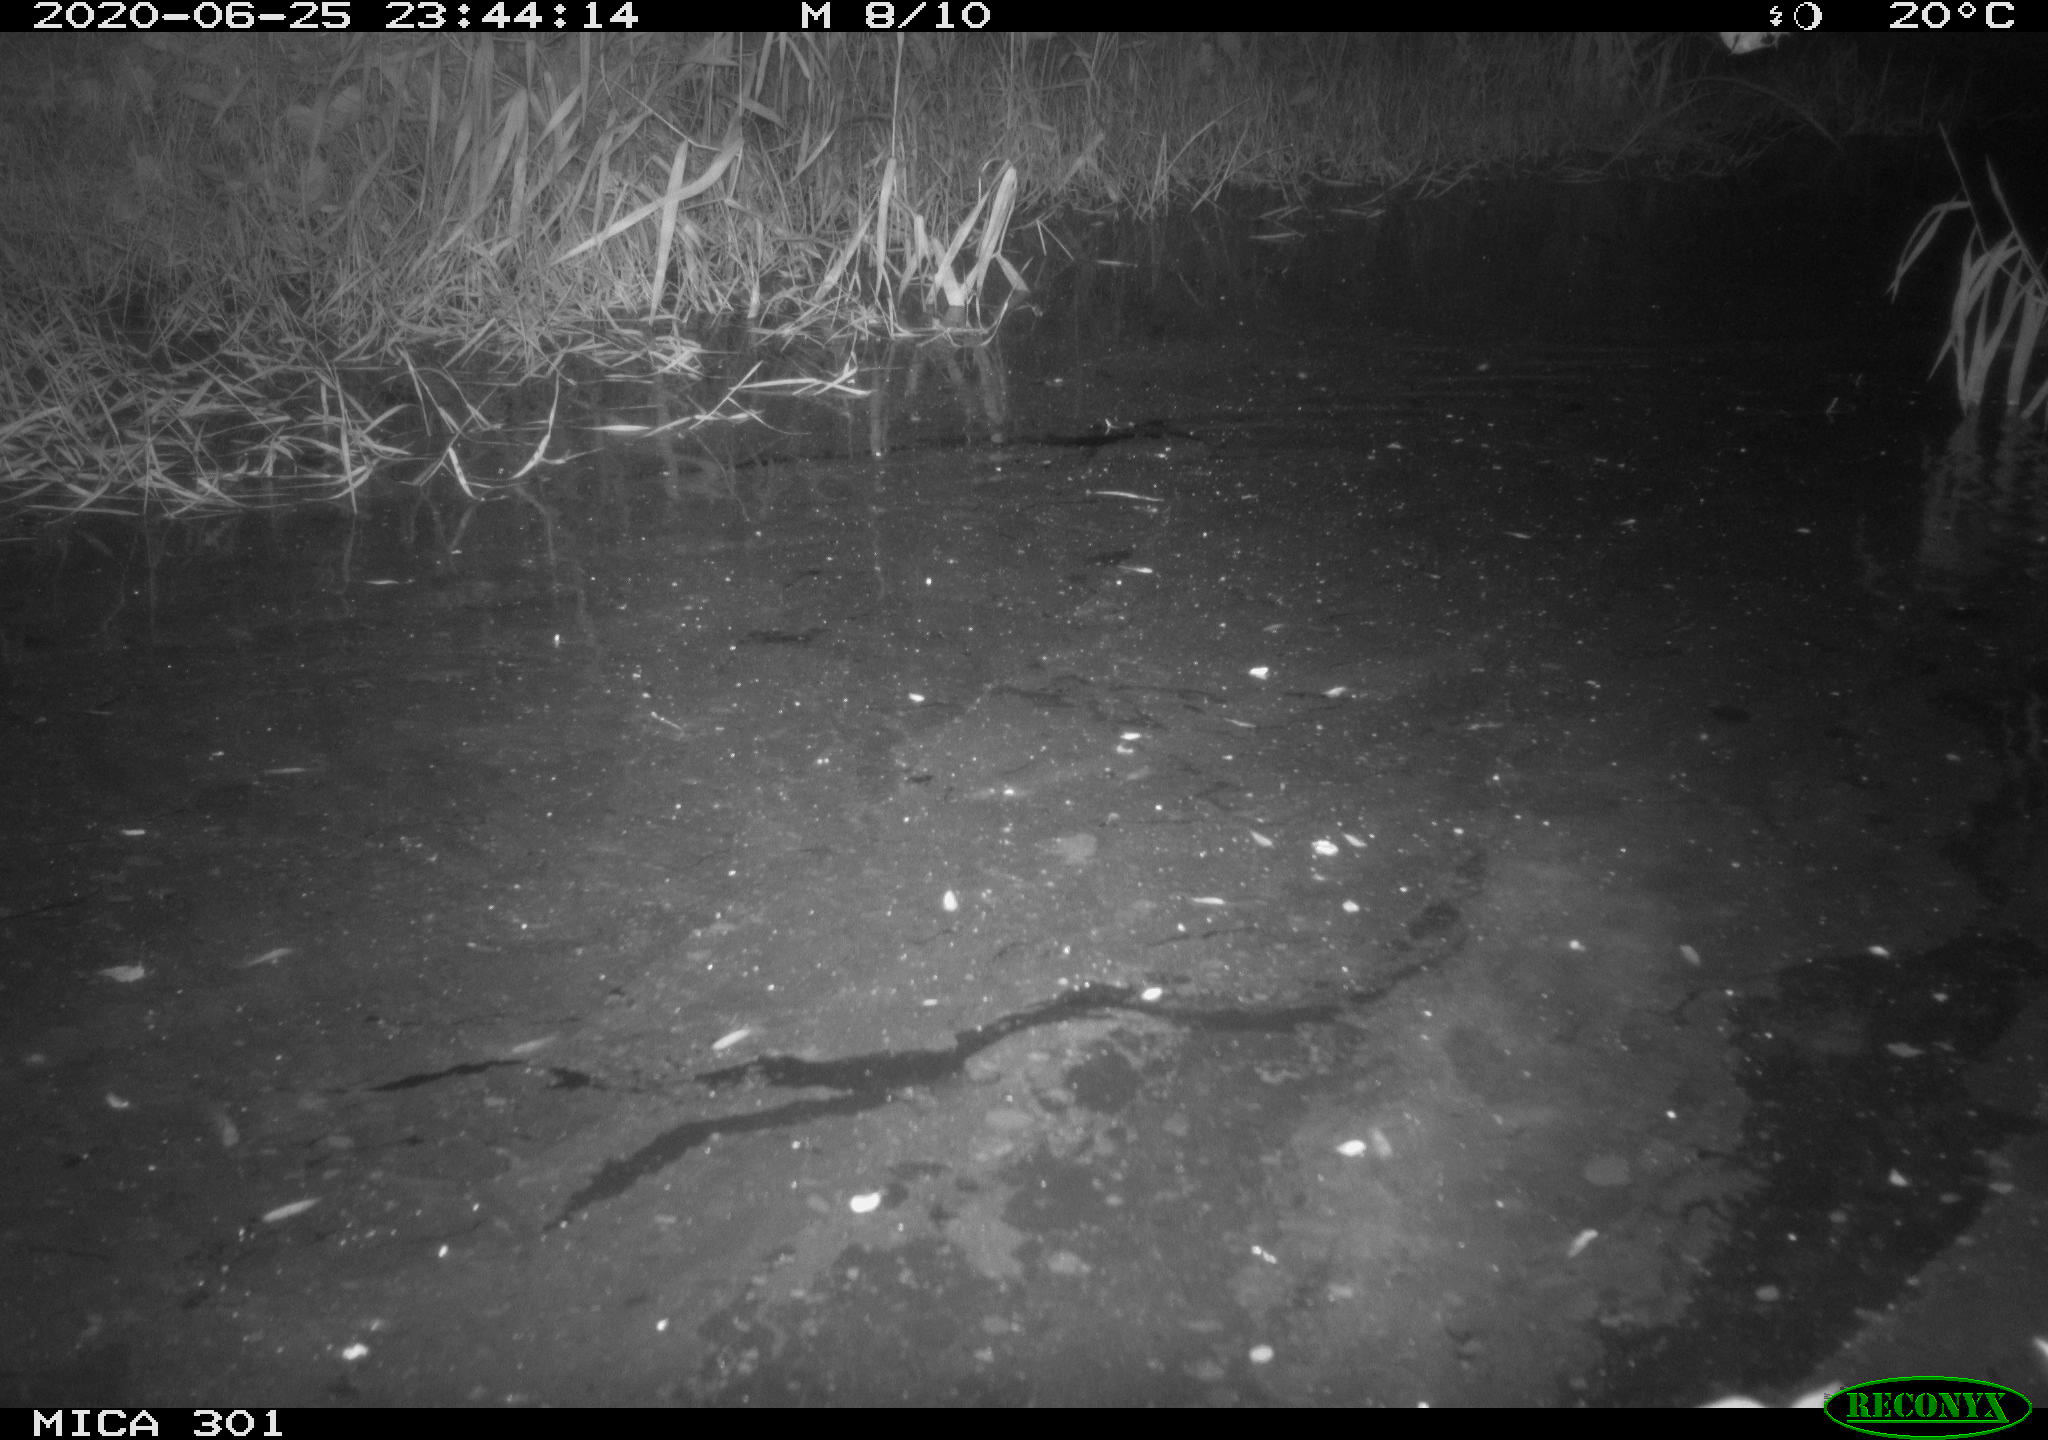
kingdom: Animalia
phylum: Chordata
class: Mammalia
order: Rodentia
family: Muridae
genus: Rattus
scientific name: Rattus norvegicus
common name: Brown rat
